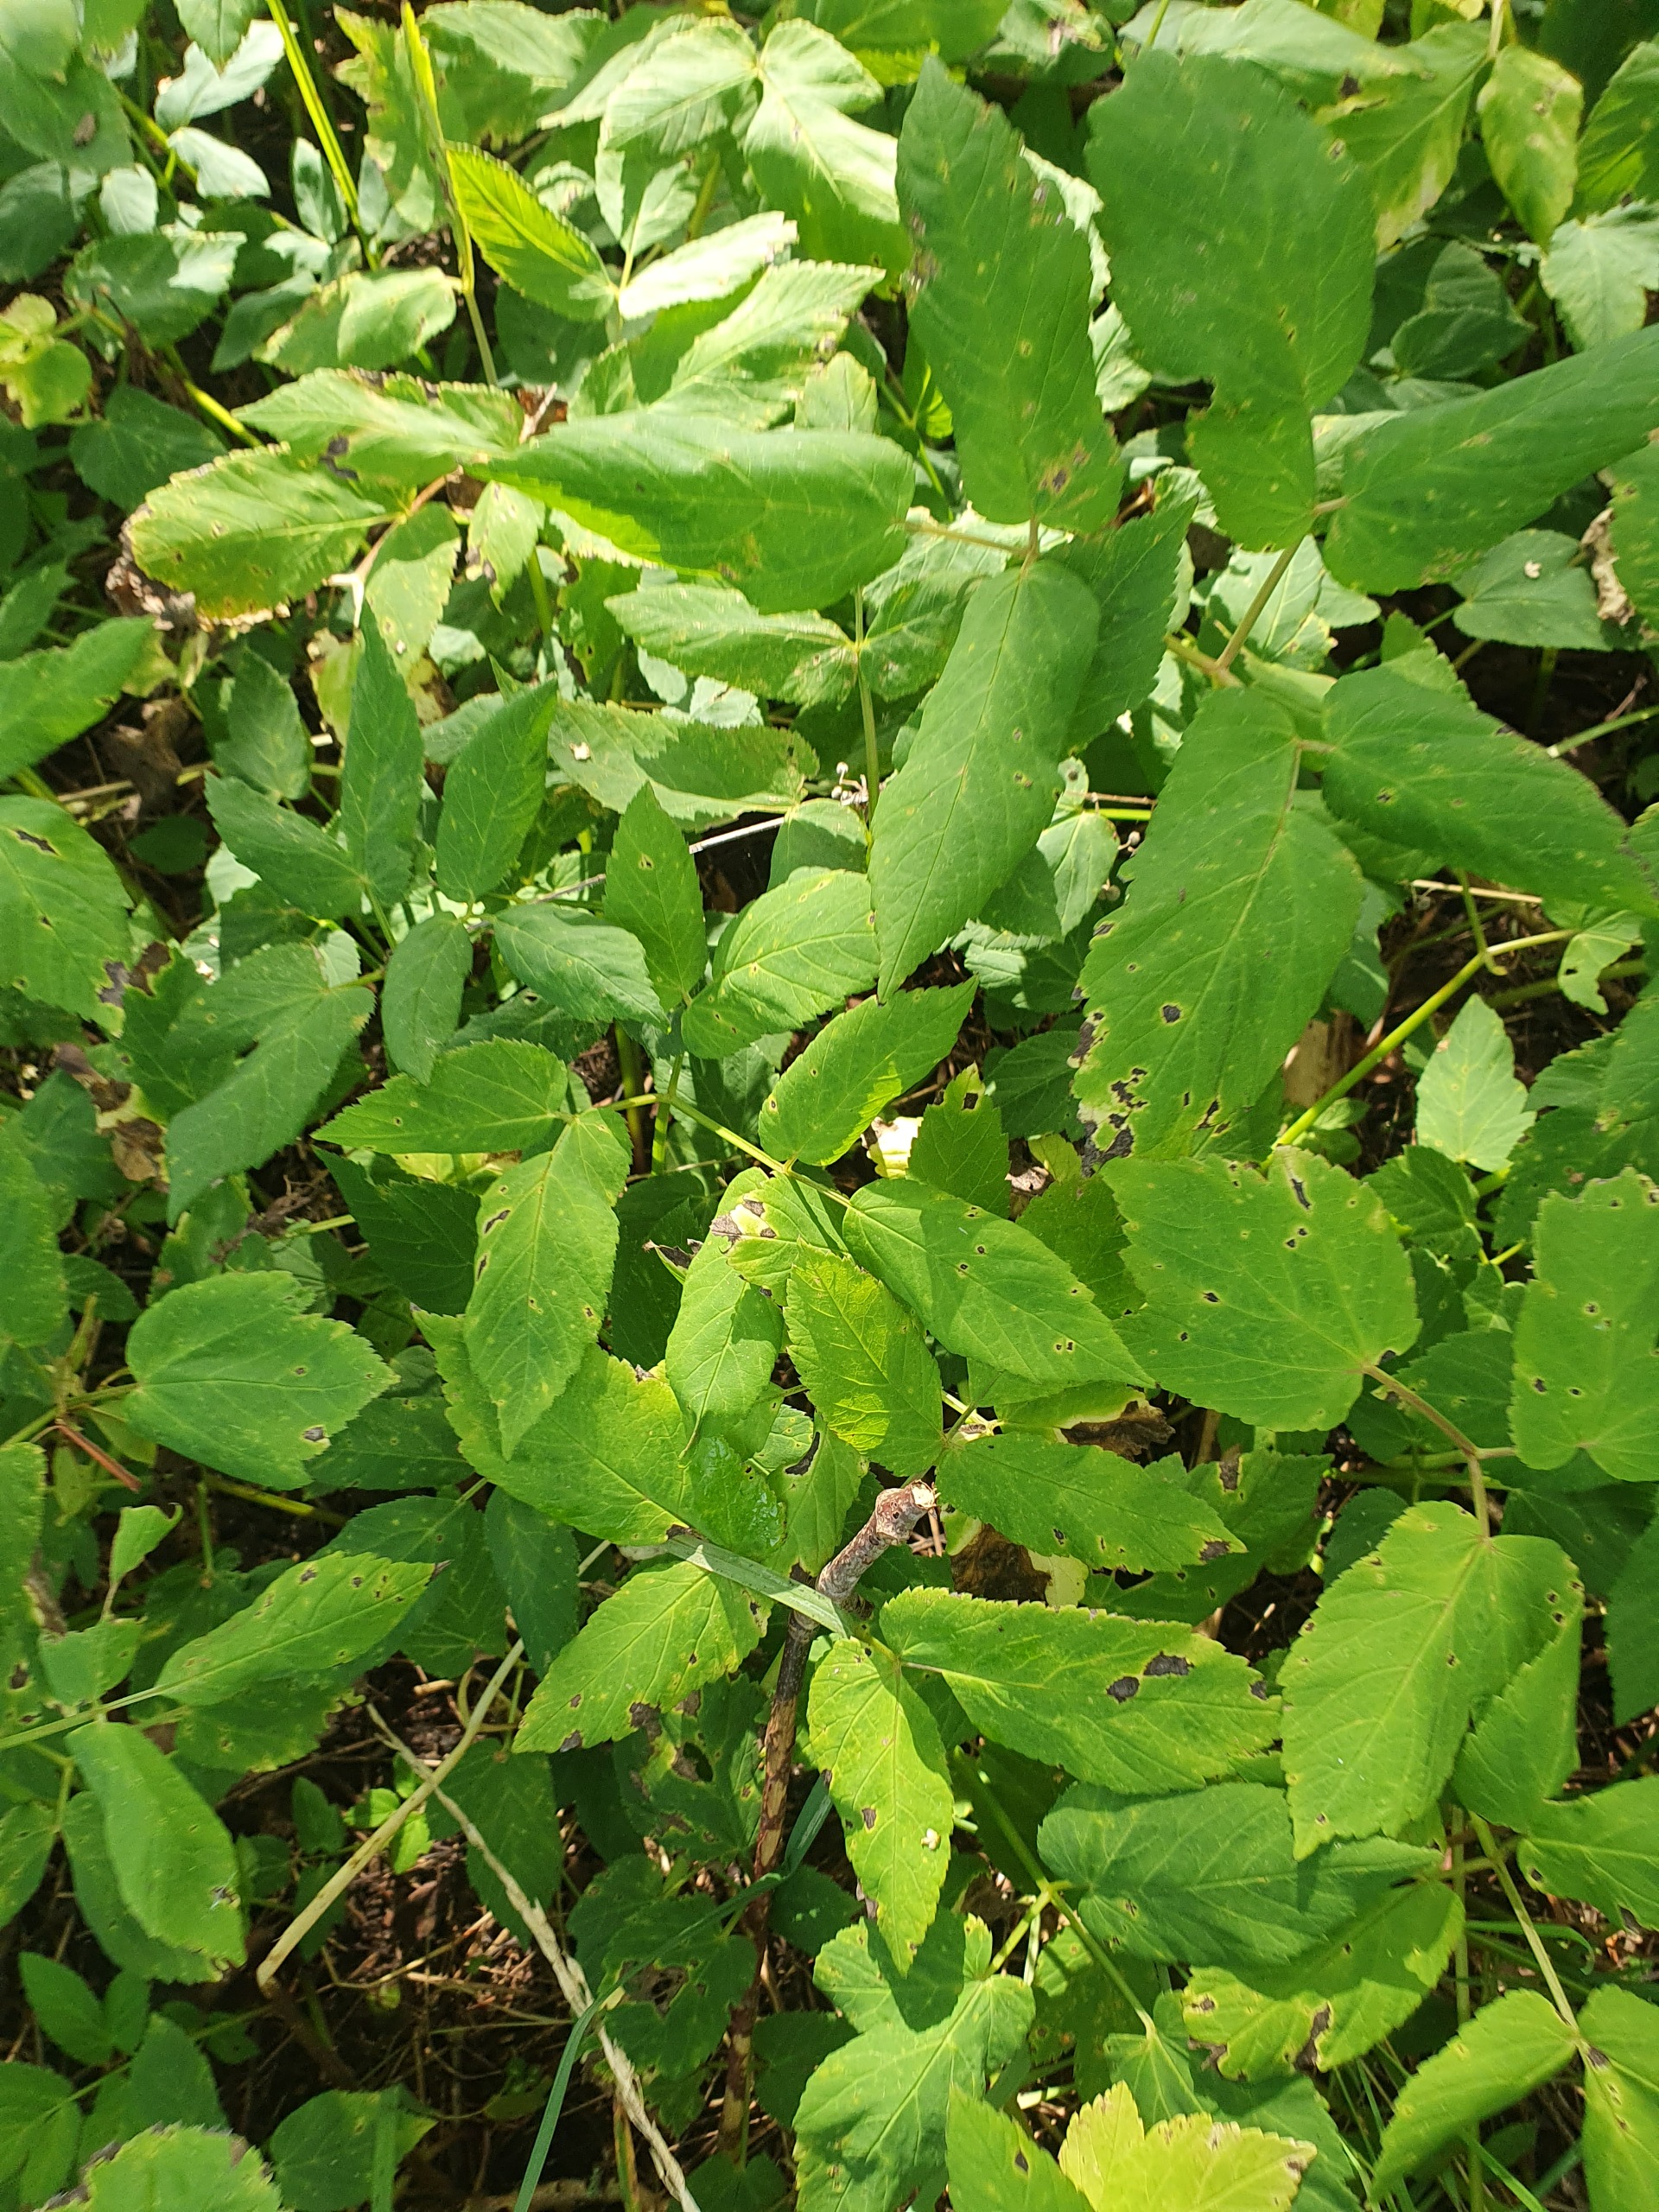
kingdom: Plantae
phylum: Tracheophyta
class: Magnoliopsida
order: Apiales
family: Apiaceae
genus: Aegopodium
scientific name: Aegopodium podagraria
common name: Skvalderkål
